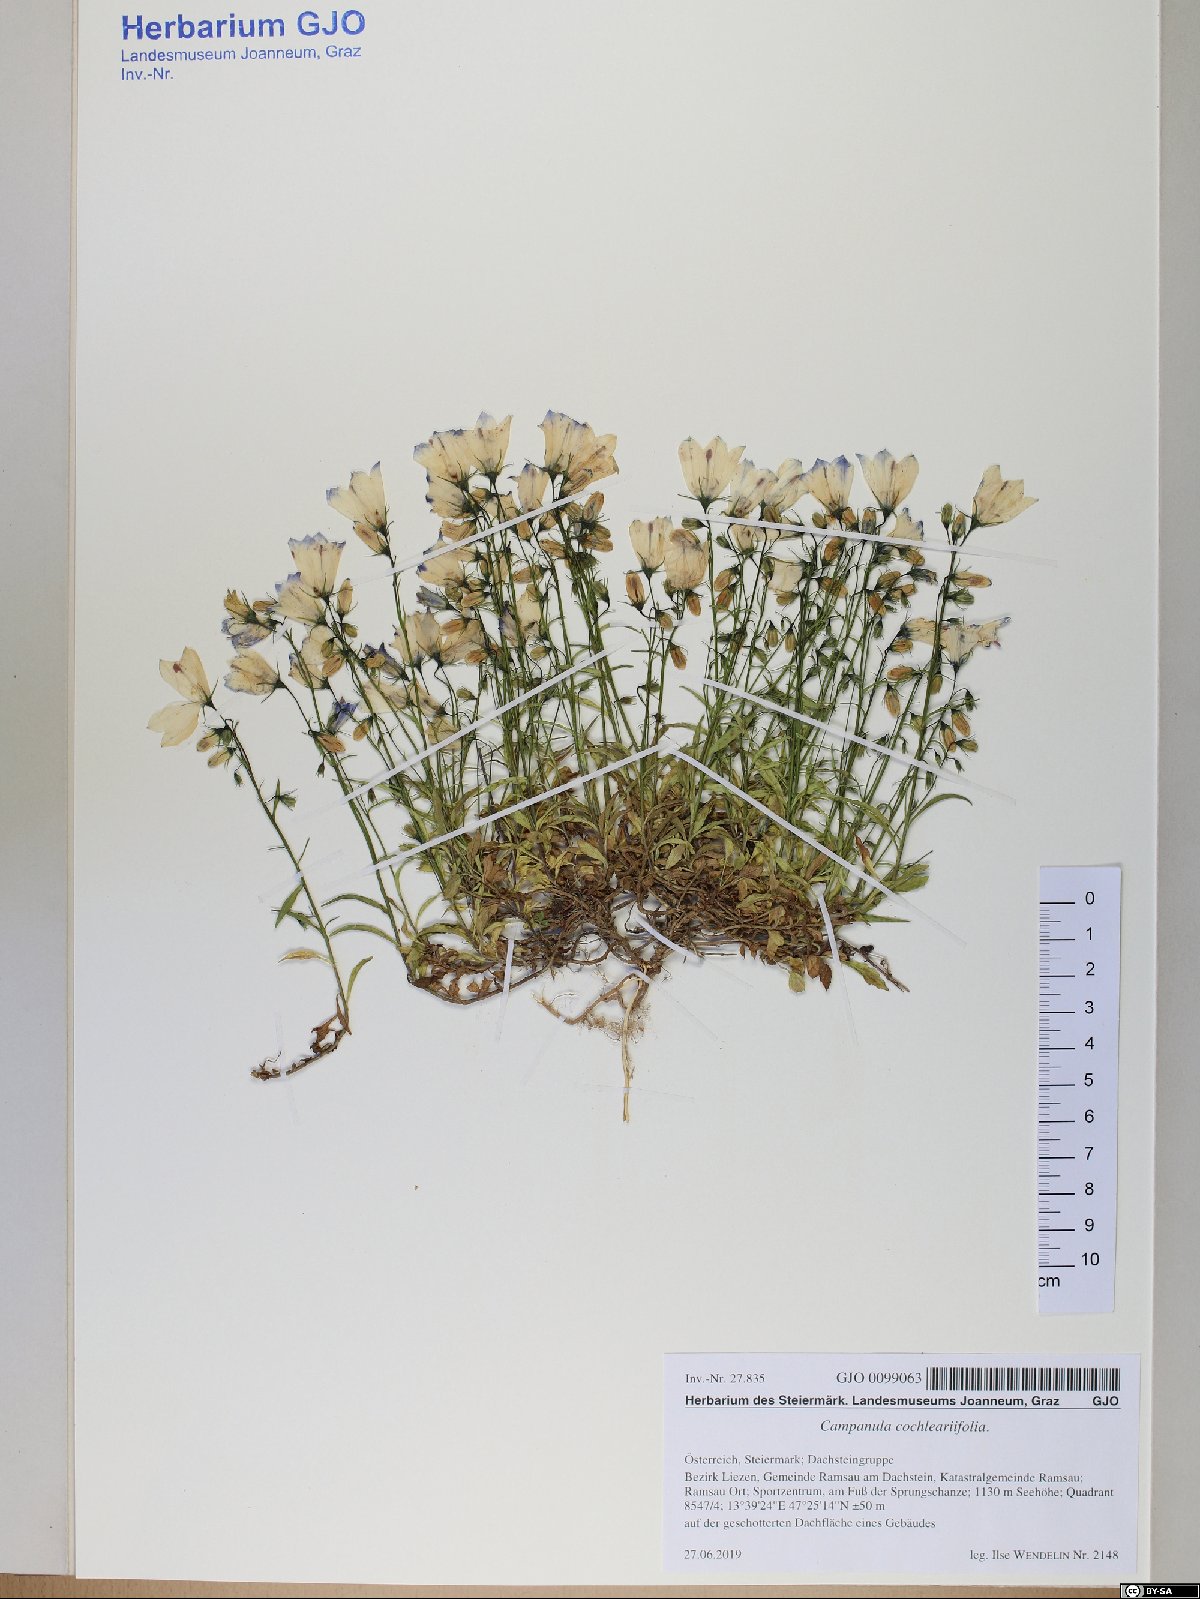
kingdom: Plantae
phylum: Tracheophyta
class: Magnoliopsida
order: Asterales
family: Campanulaceae
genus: Campanula
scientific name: Campanula cochleariifolia
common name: Fairies'-thimbles
